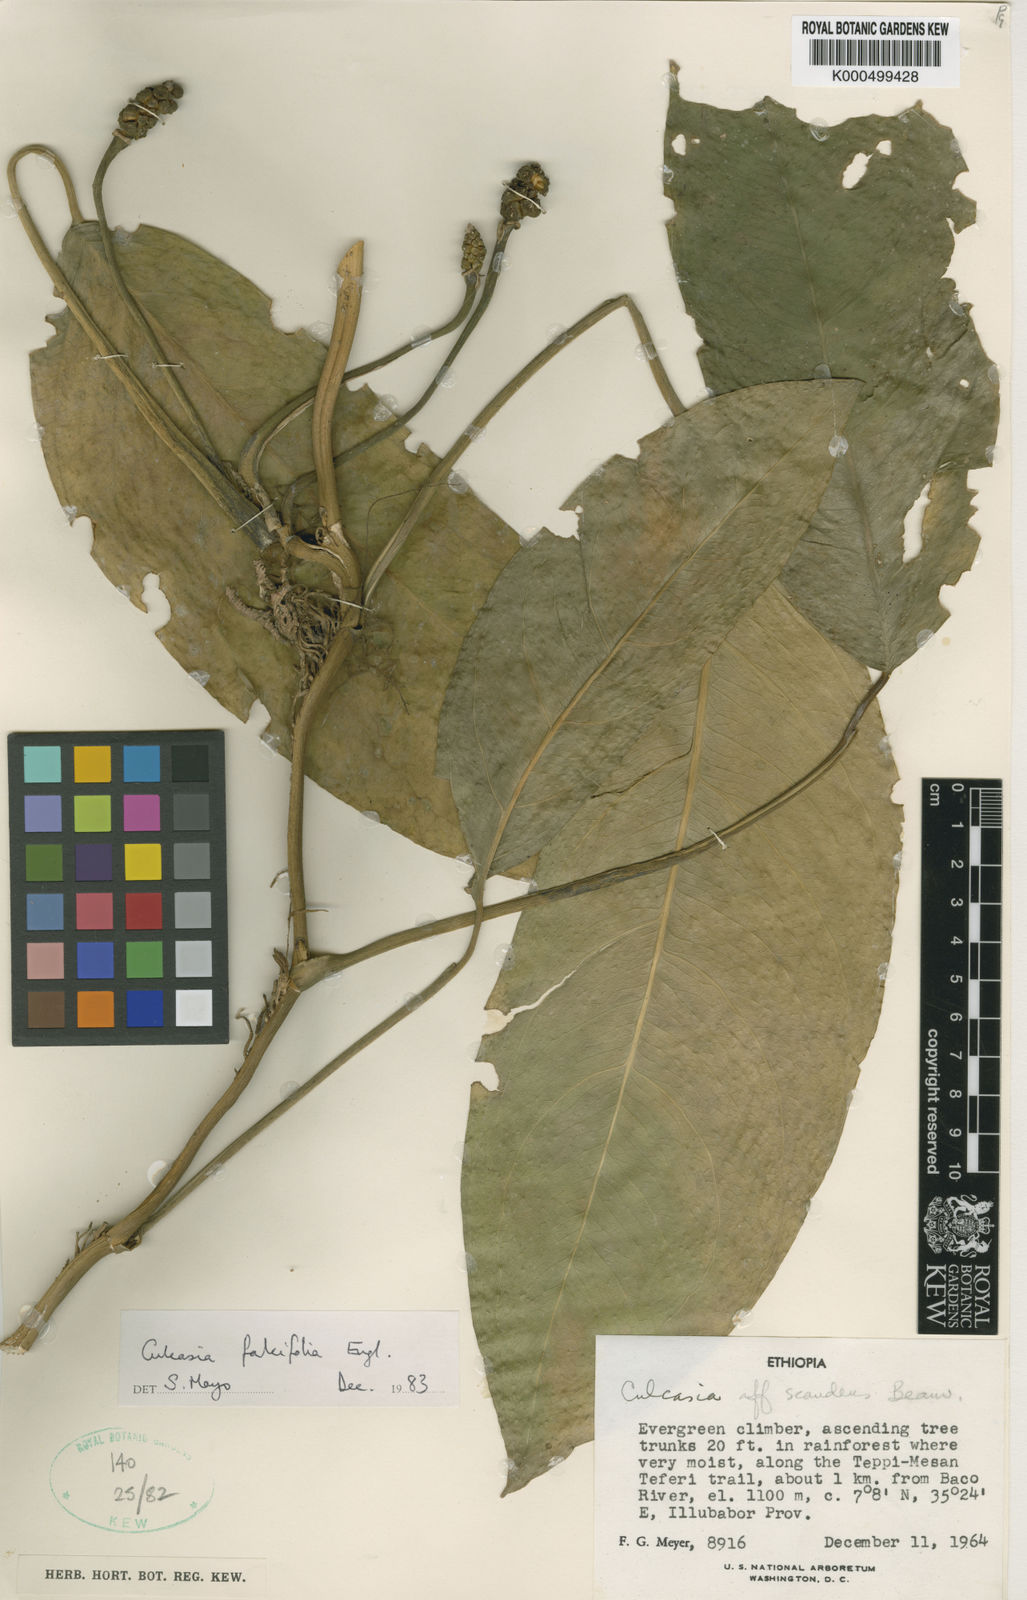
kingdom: Plantae
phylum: Tracheophyta
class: Liliopsida
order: Alismatales
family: Araceae
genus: Culcasia
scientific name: Culcasia falcifolia
